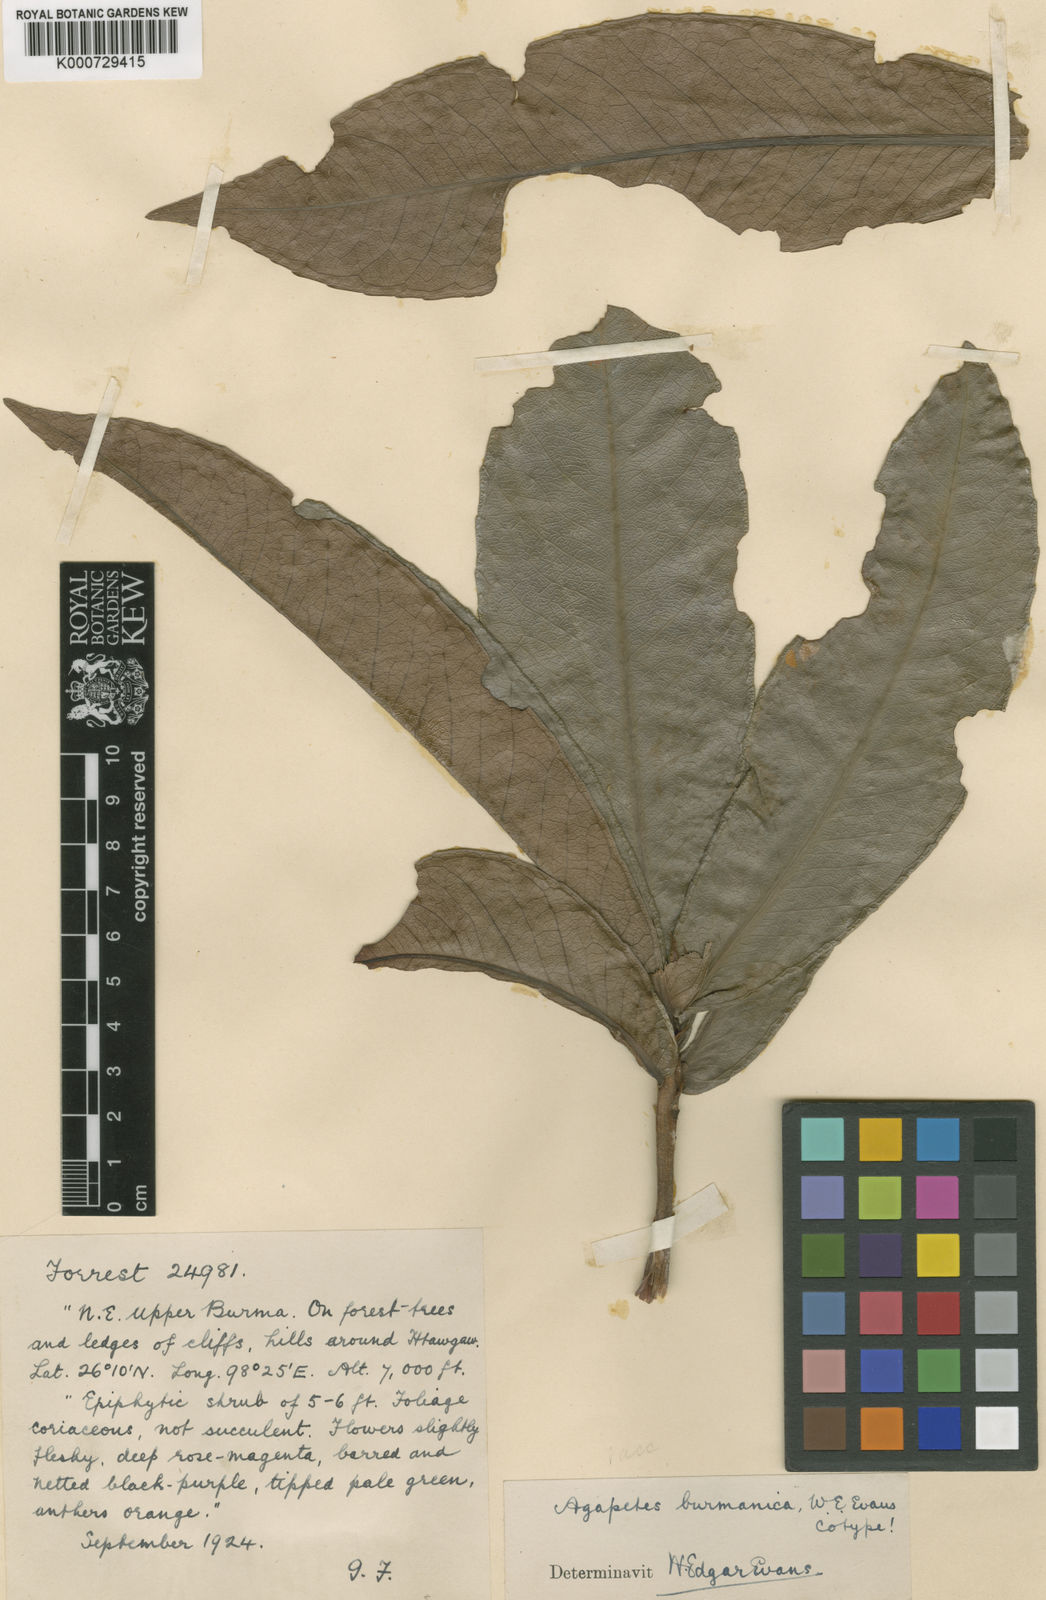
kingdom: Plantae
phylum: Tracheophyta
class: Magnoliopsida
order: Ericales
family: Ericaceae
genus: Agapetes
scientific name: Agapetes megacarpa
